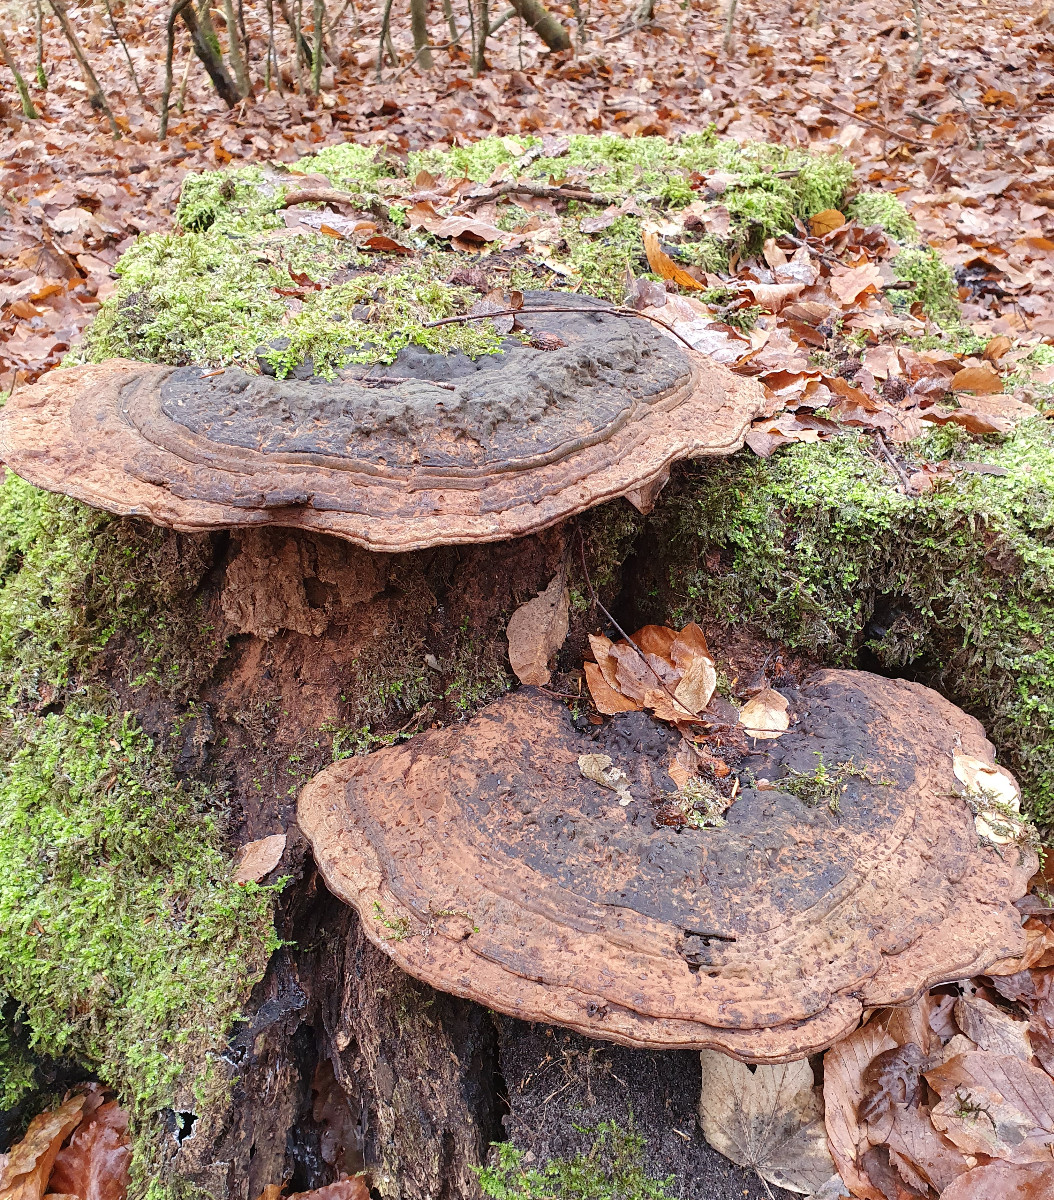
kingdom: Fungi
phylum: Basidiomycota
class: Agaricomycetes
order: Polyporales
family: Polyporaceae
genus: Ganoderma
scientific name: Ganoderma applanatum
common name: flad lakporesvamp
